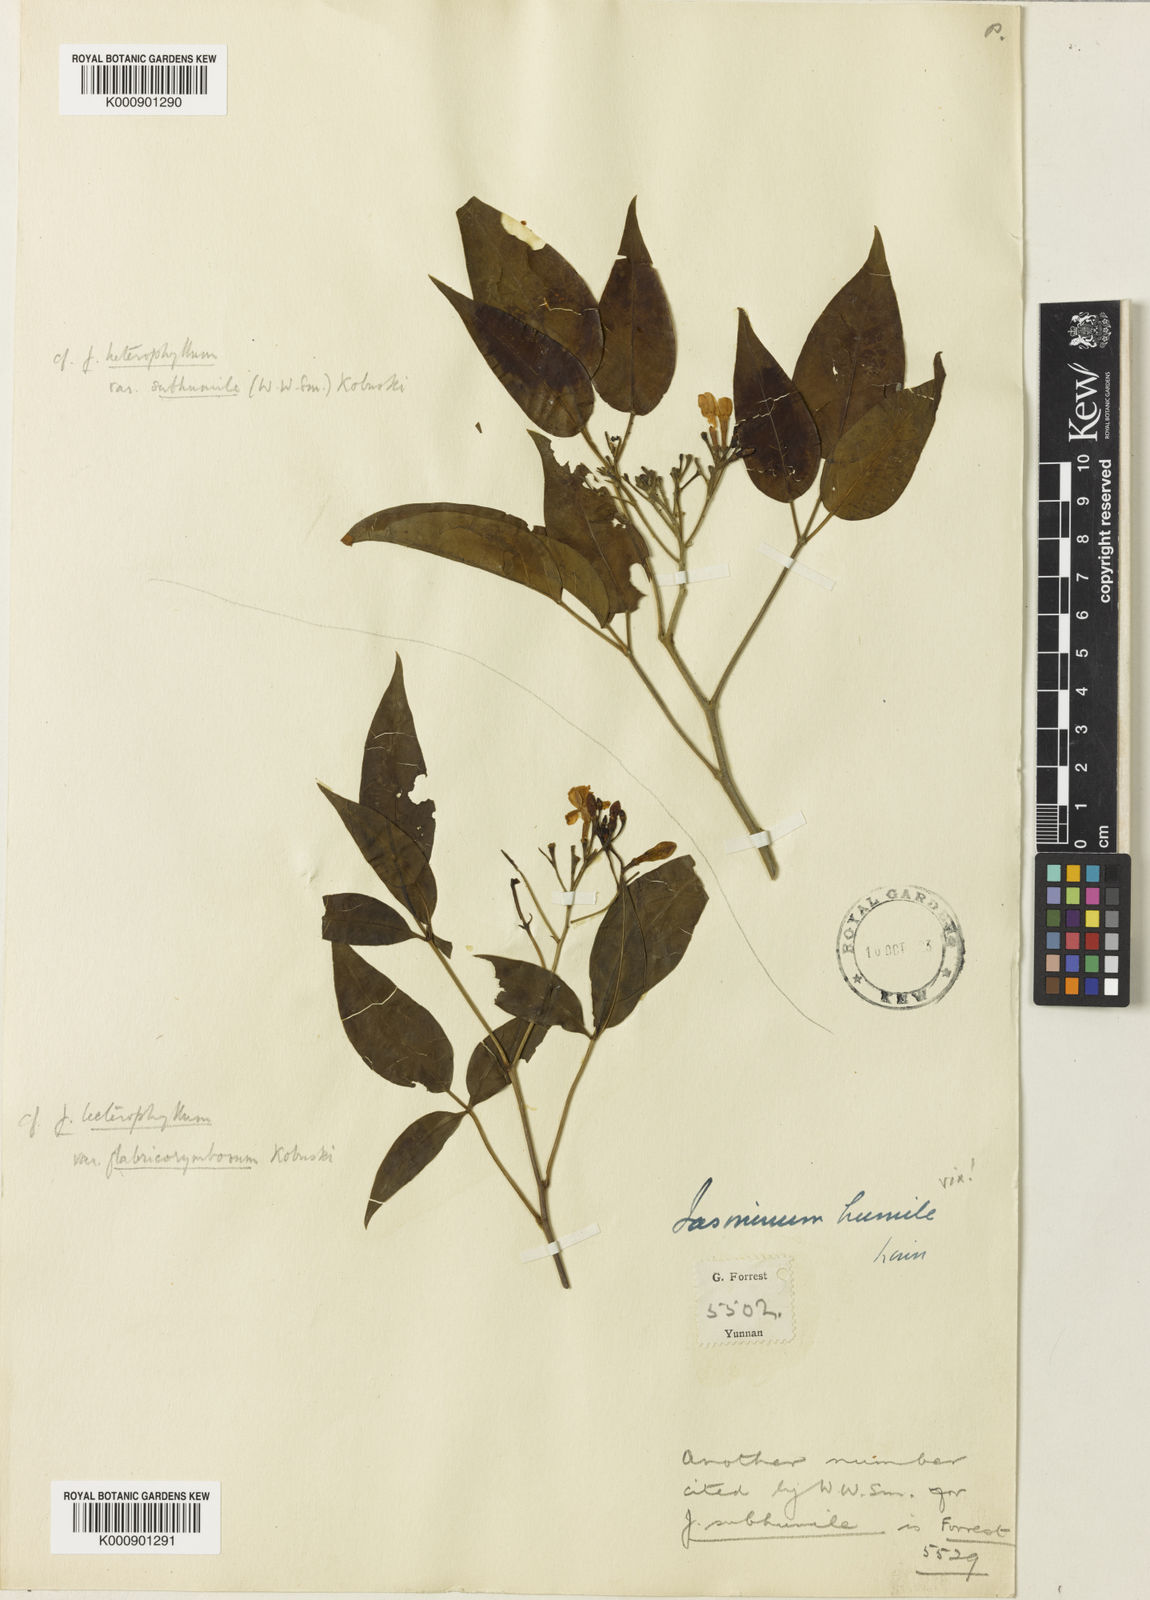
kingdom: Plantae
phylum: Tracheophyta
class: Magnoliopsida
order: Lamiales
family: Oleaceae
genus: Chrysojasminum
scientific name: Chrysojasminum subhumile
